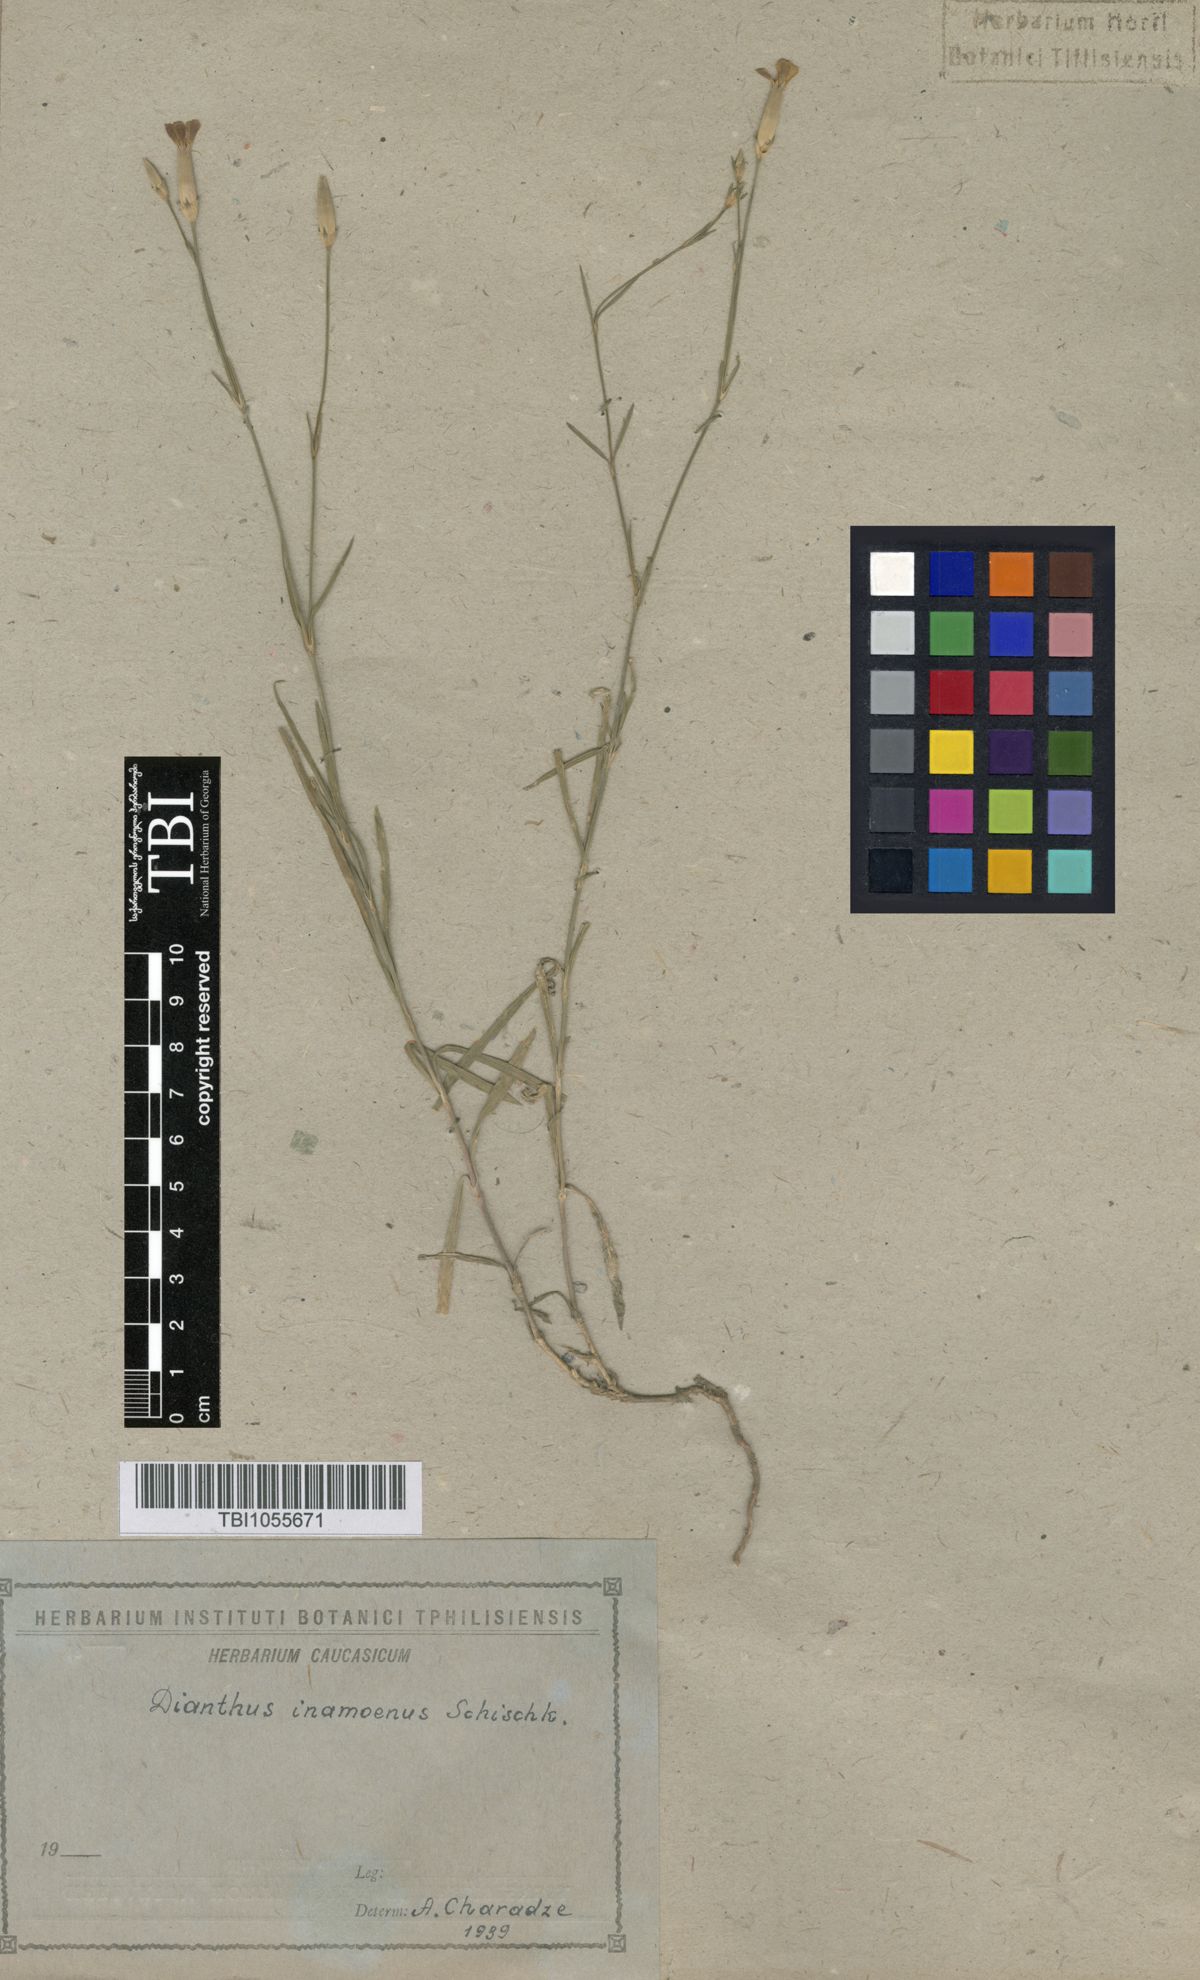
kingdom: Plantae
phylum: Tracheophyta
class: Magnoliopsida
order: Caryophyllales
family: Caryophyllaceae
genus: Dianthus
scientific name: Dianthus inamoenus
